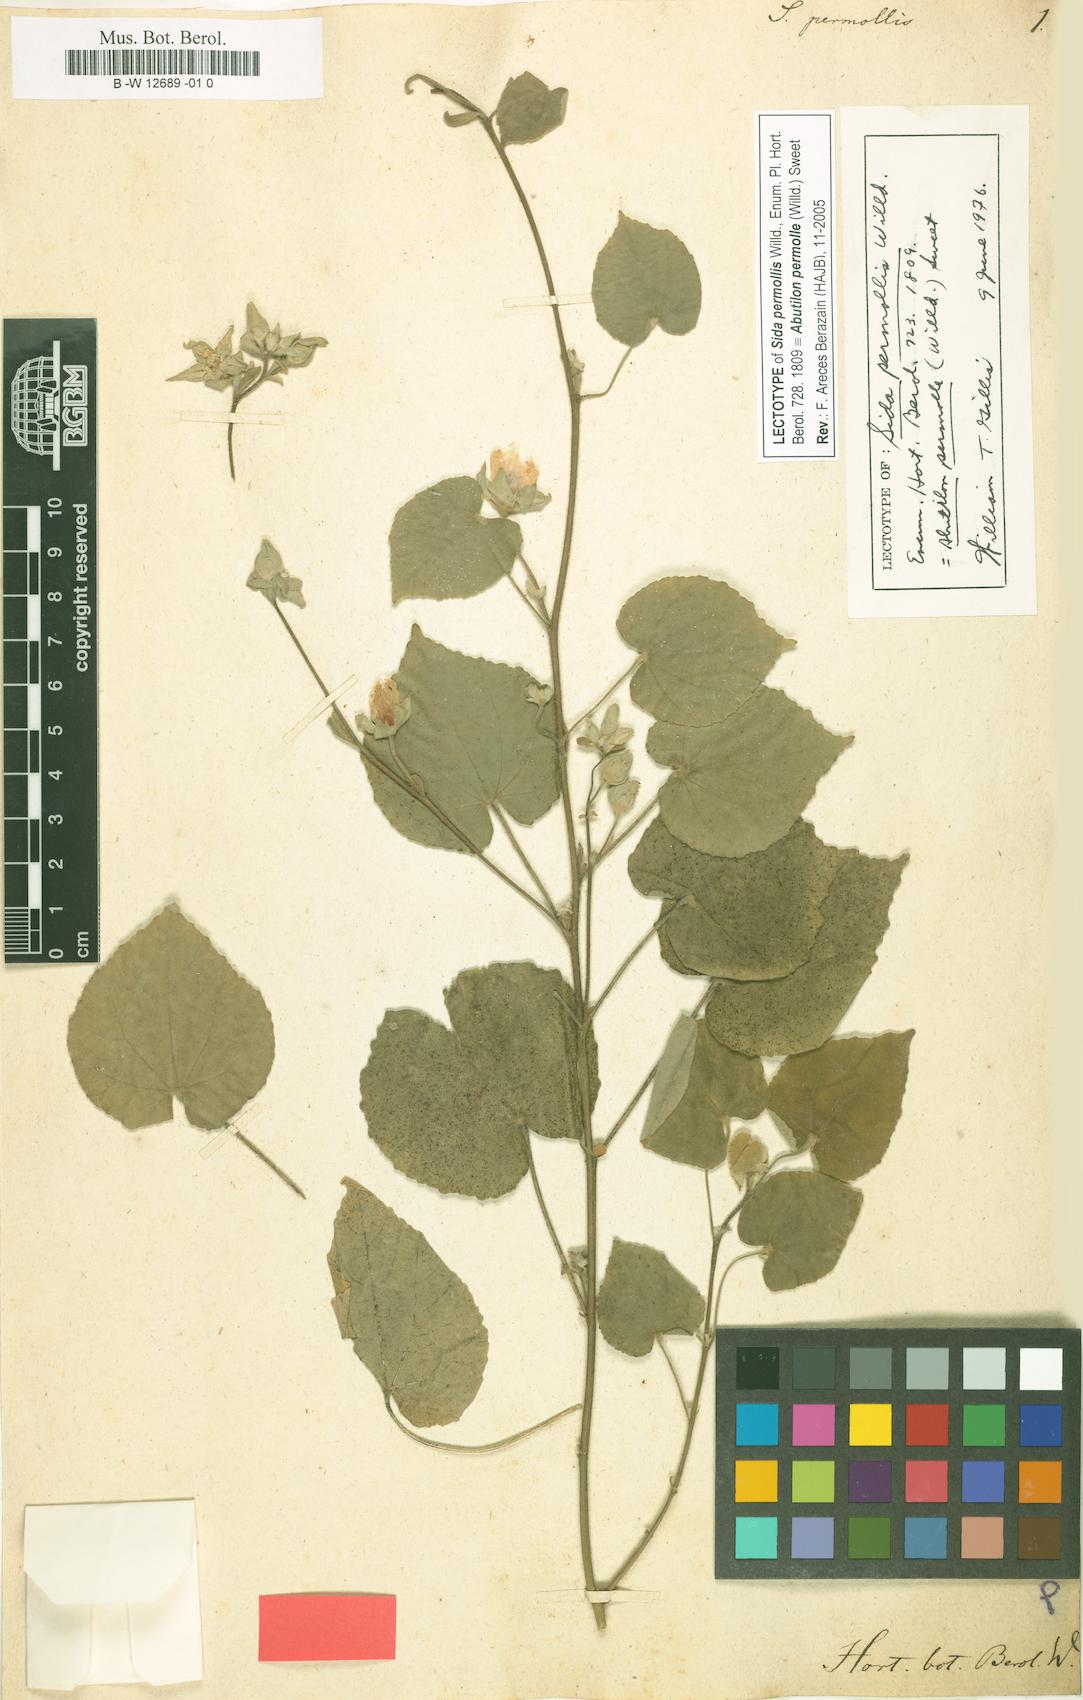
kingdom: Plantae
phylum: Tracheophyta
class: Magnoliopsida
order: Malvales
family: Malvaceae
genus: Abutilon
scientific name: Abutilon permolle
